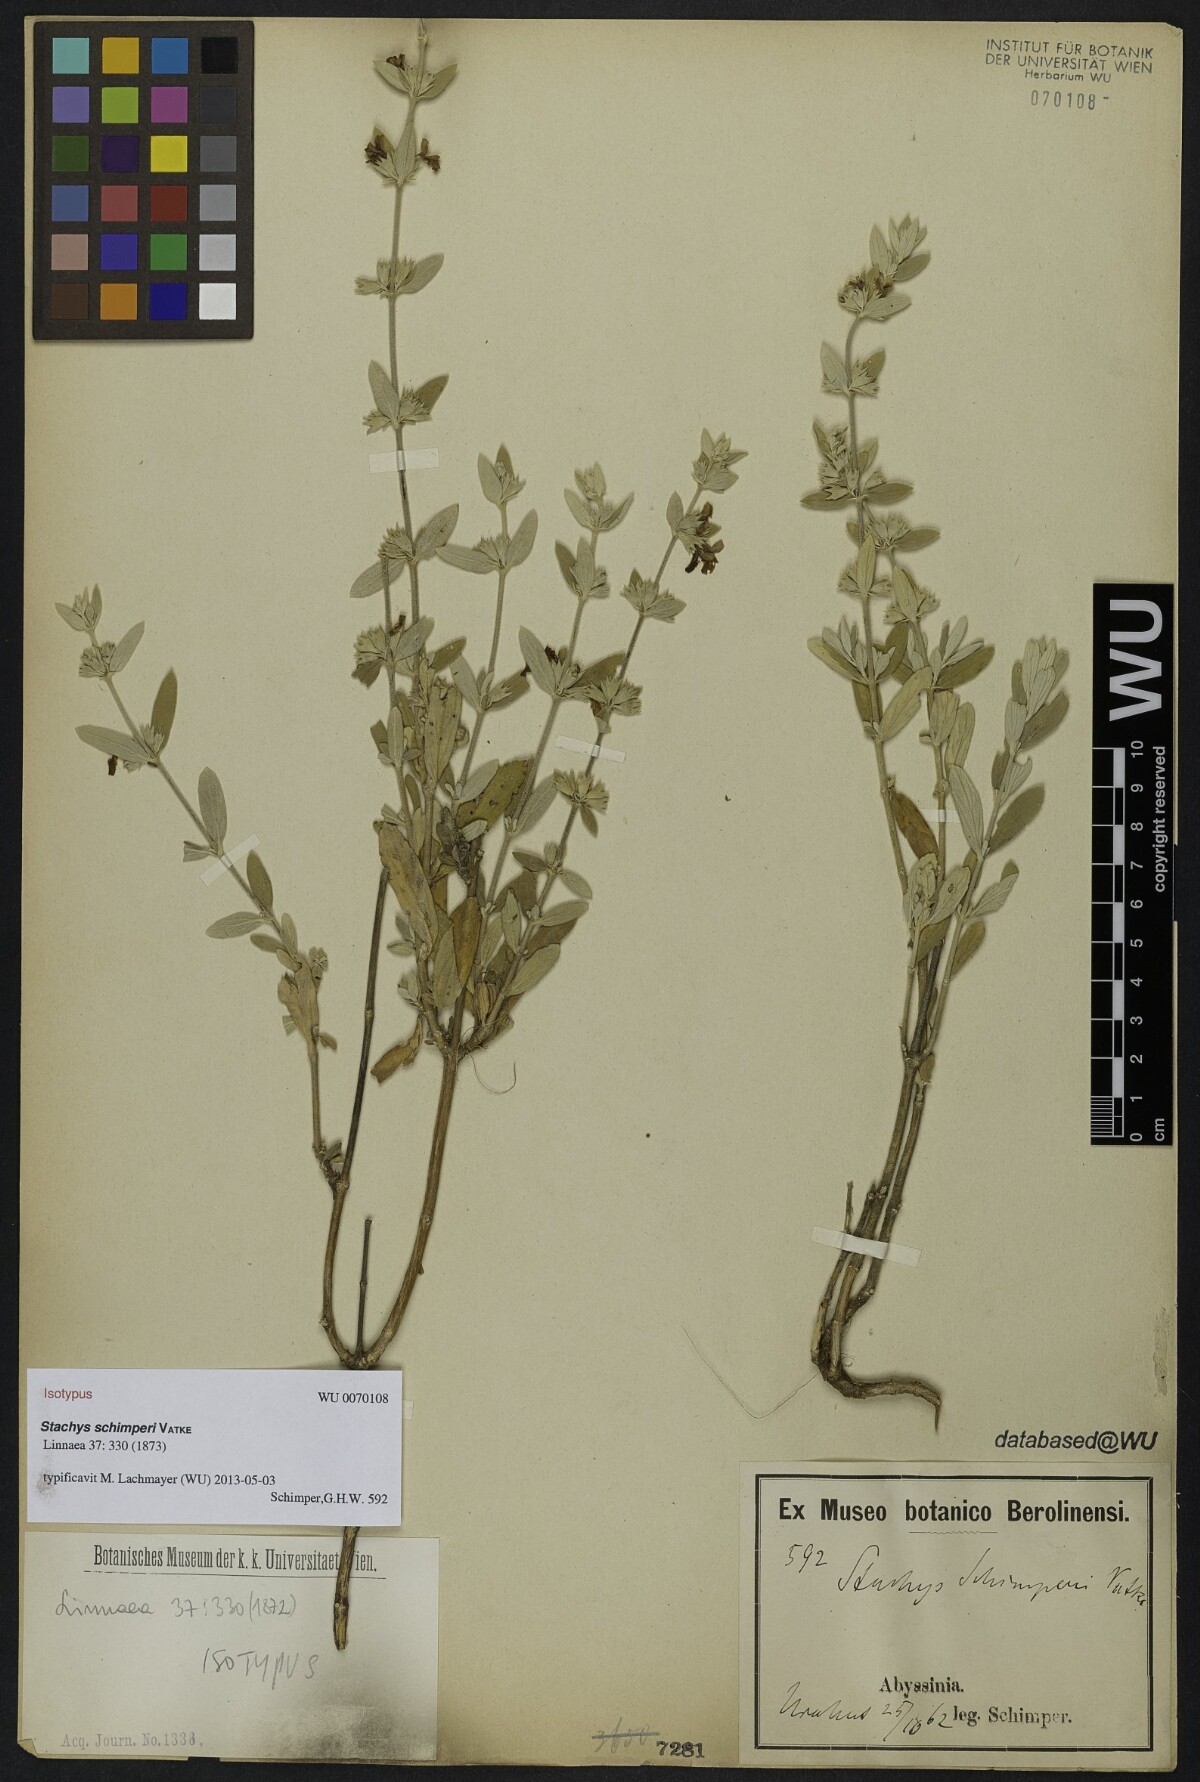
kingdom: Plantae
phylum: Tracheophyta
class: Magnoliopsida
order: Lamiales
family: Lamiaceae
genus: Stachys
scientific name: Stachys schimperi
